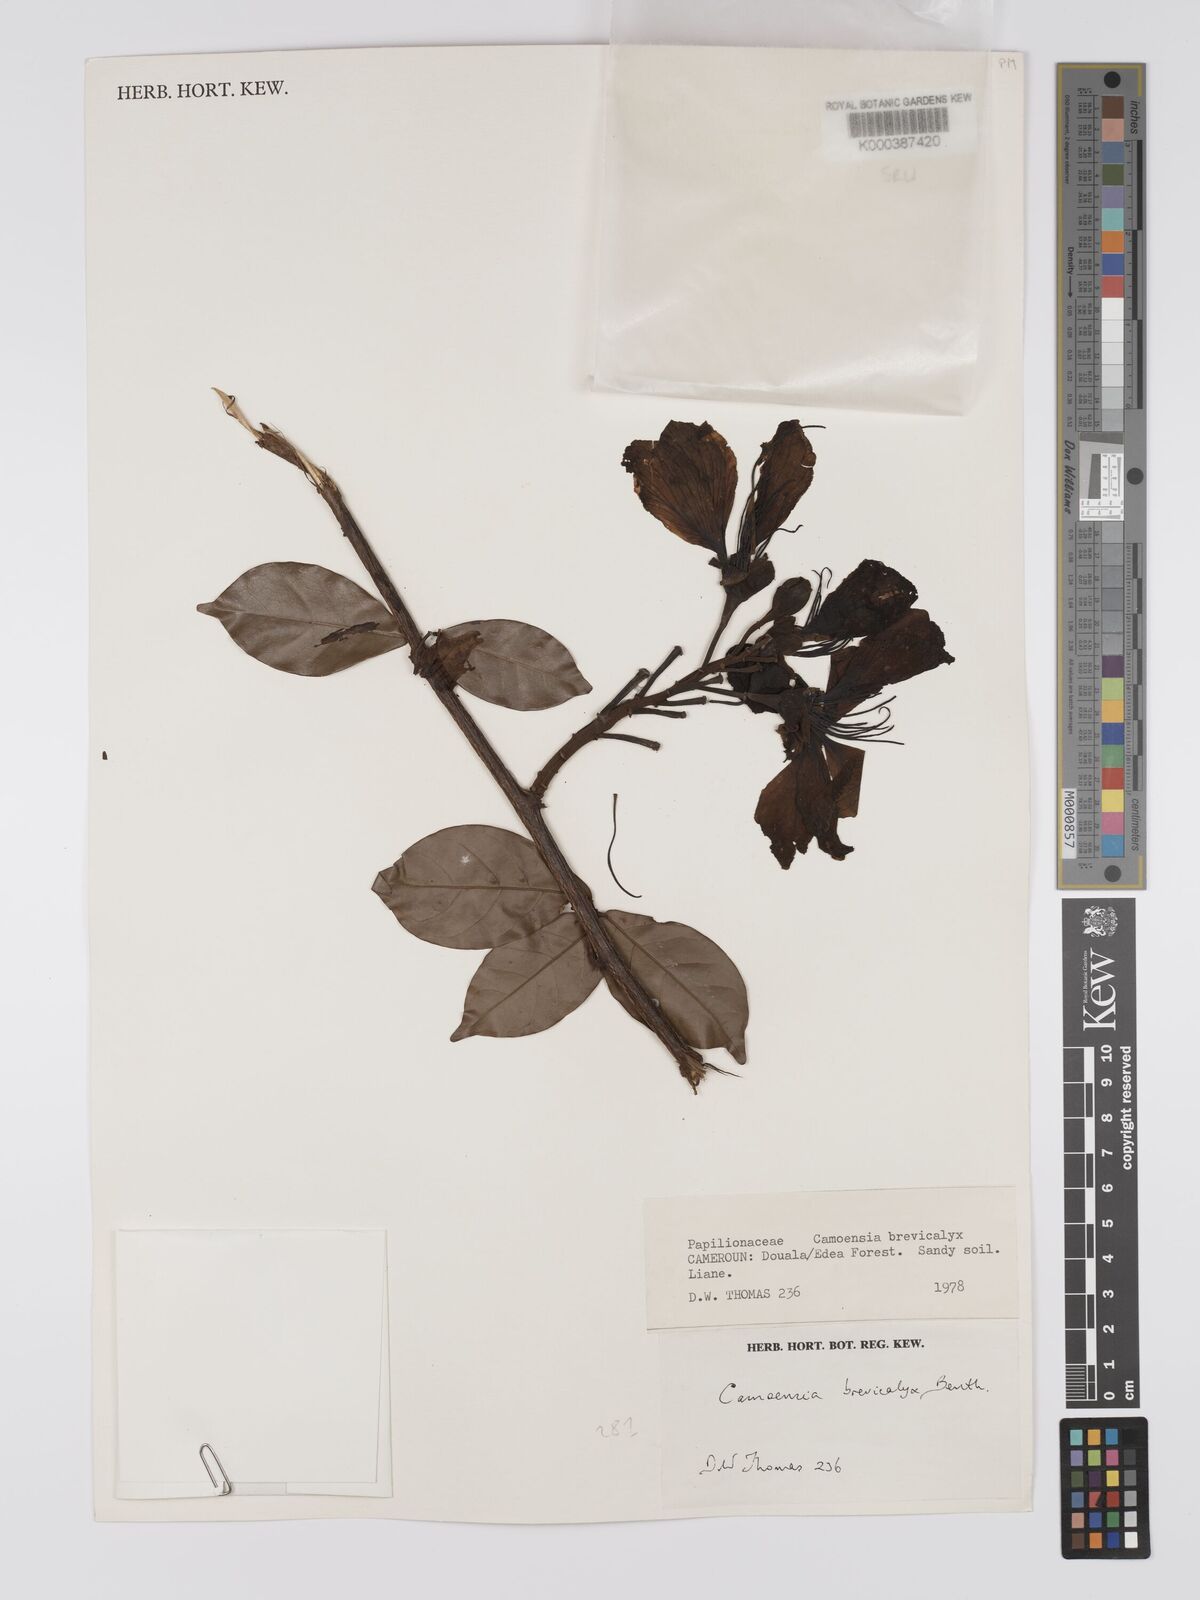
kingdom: Plantae
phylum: Tracheophyta
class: Magnoliopsida
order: Fabales
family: Fabaceae
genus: Camoensia
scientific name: Camoensia brevicalyx
